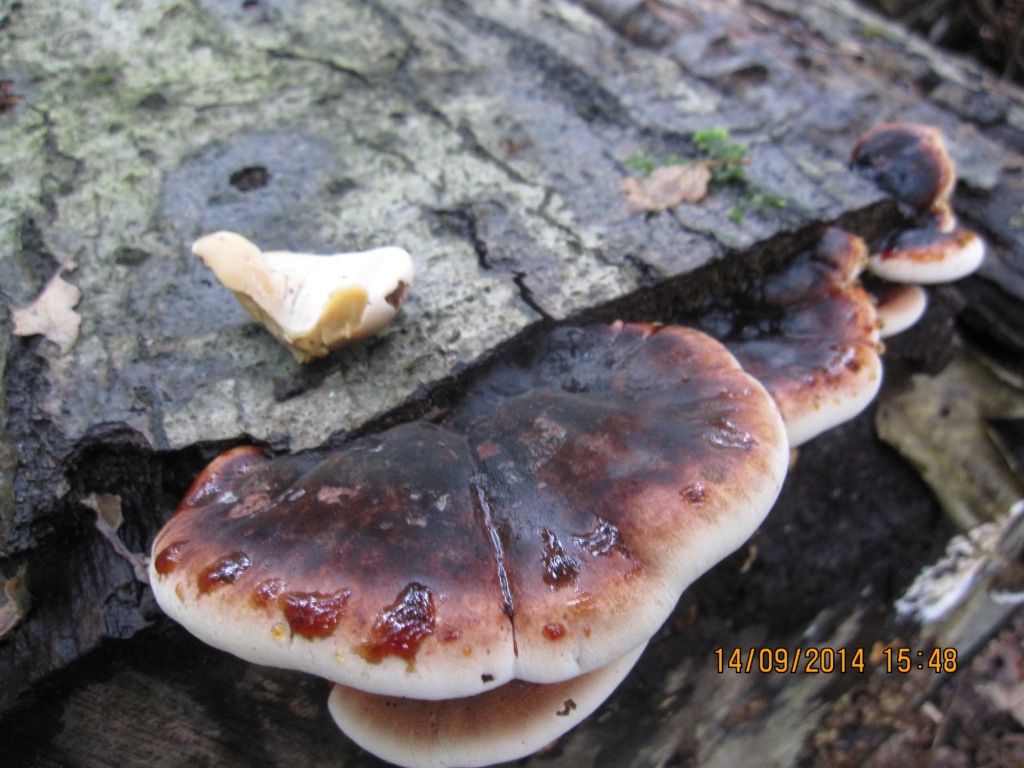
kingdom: Fungi
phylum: Basidiomycota
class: Agaricomycetes
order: Polyporales
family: Ischnodermataceae
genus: Ischnoderma
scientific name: Ischnoderma resinosum
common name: løv-tjæreporesvamp
